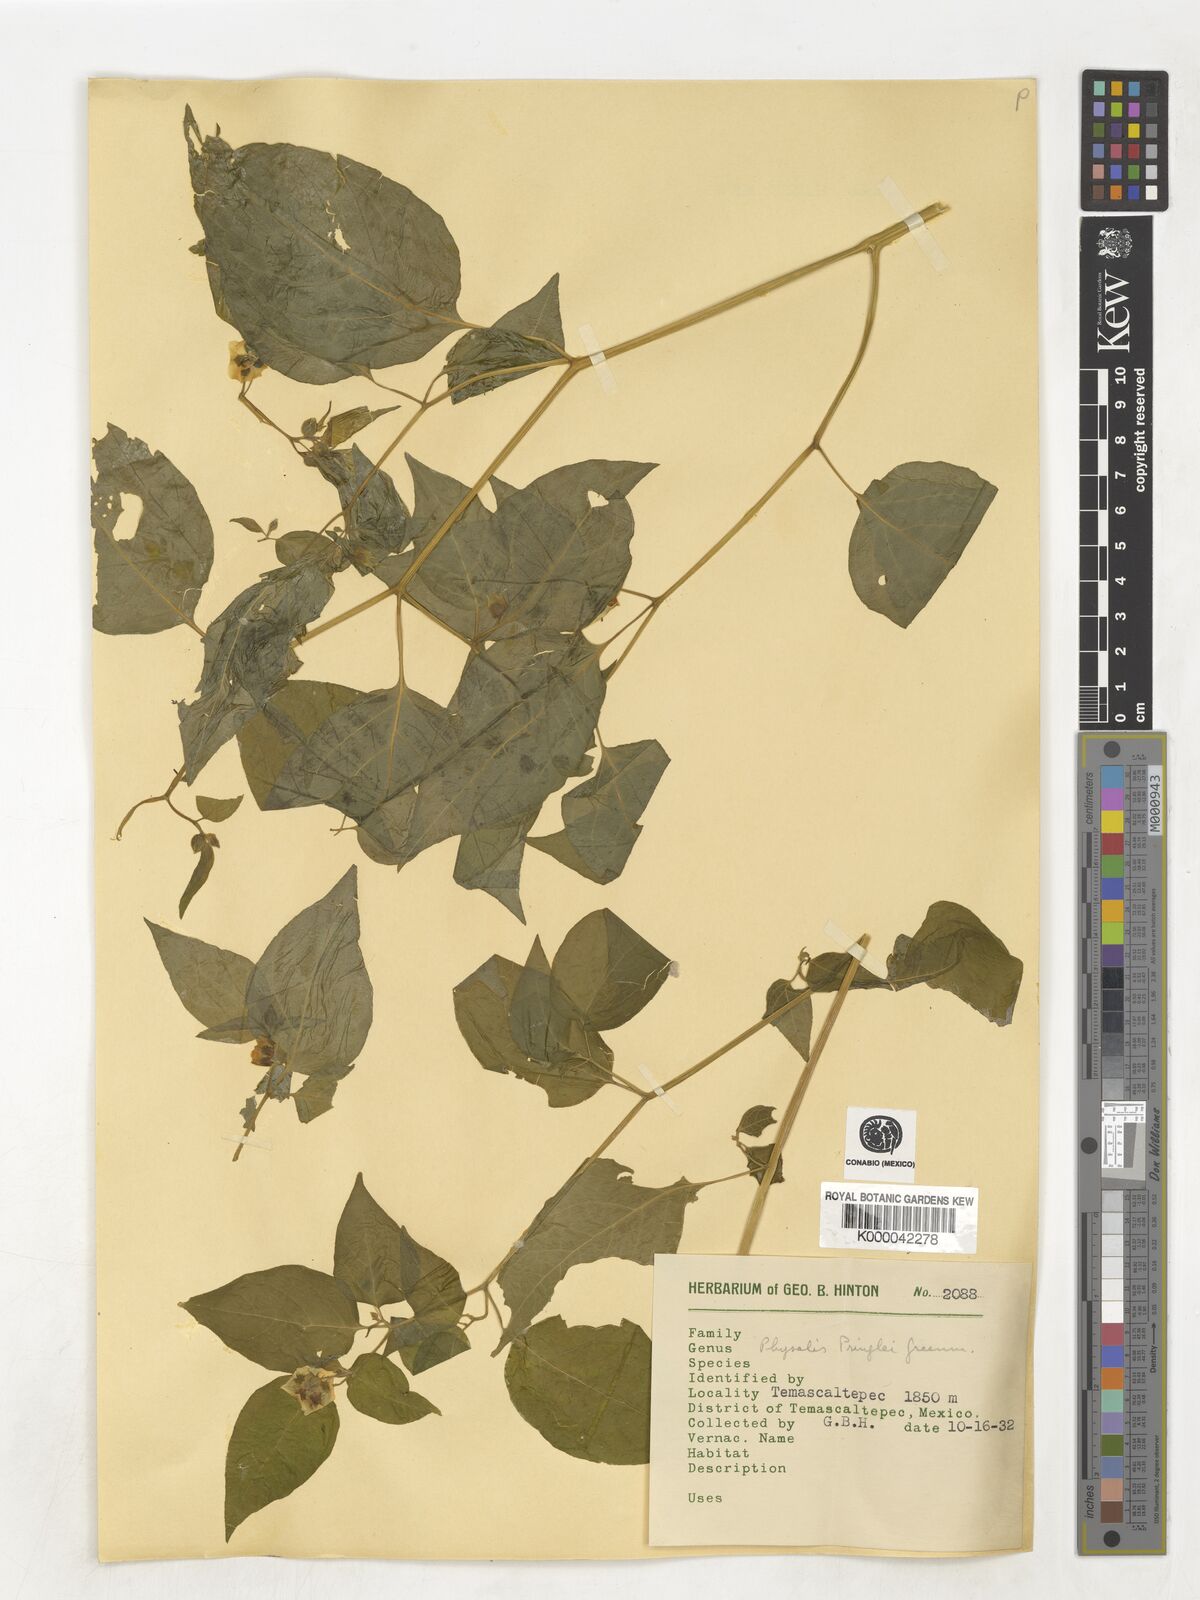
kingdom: Plantae
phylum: Tracheophyta
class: Magnoliopsida
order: Solanales
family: Solanaceae
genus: Physalis
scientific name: Physalis pringlei
